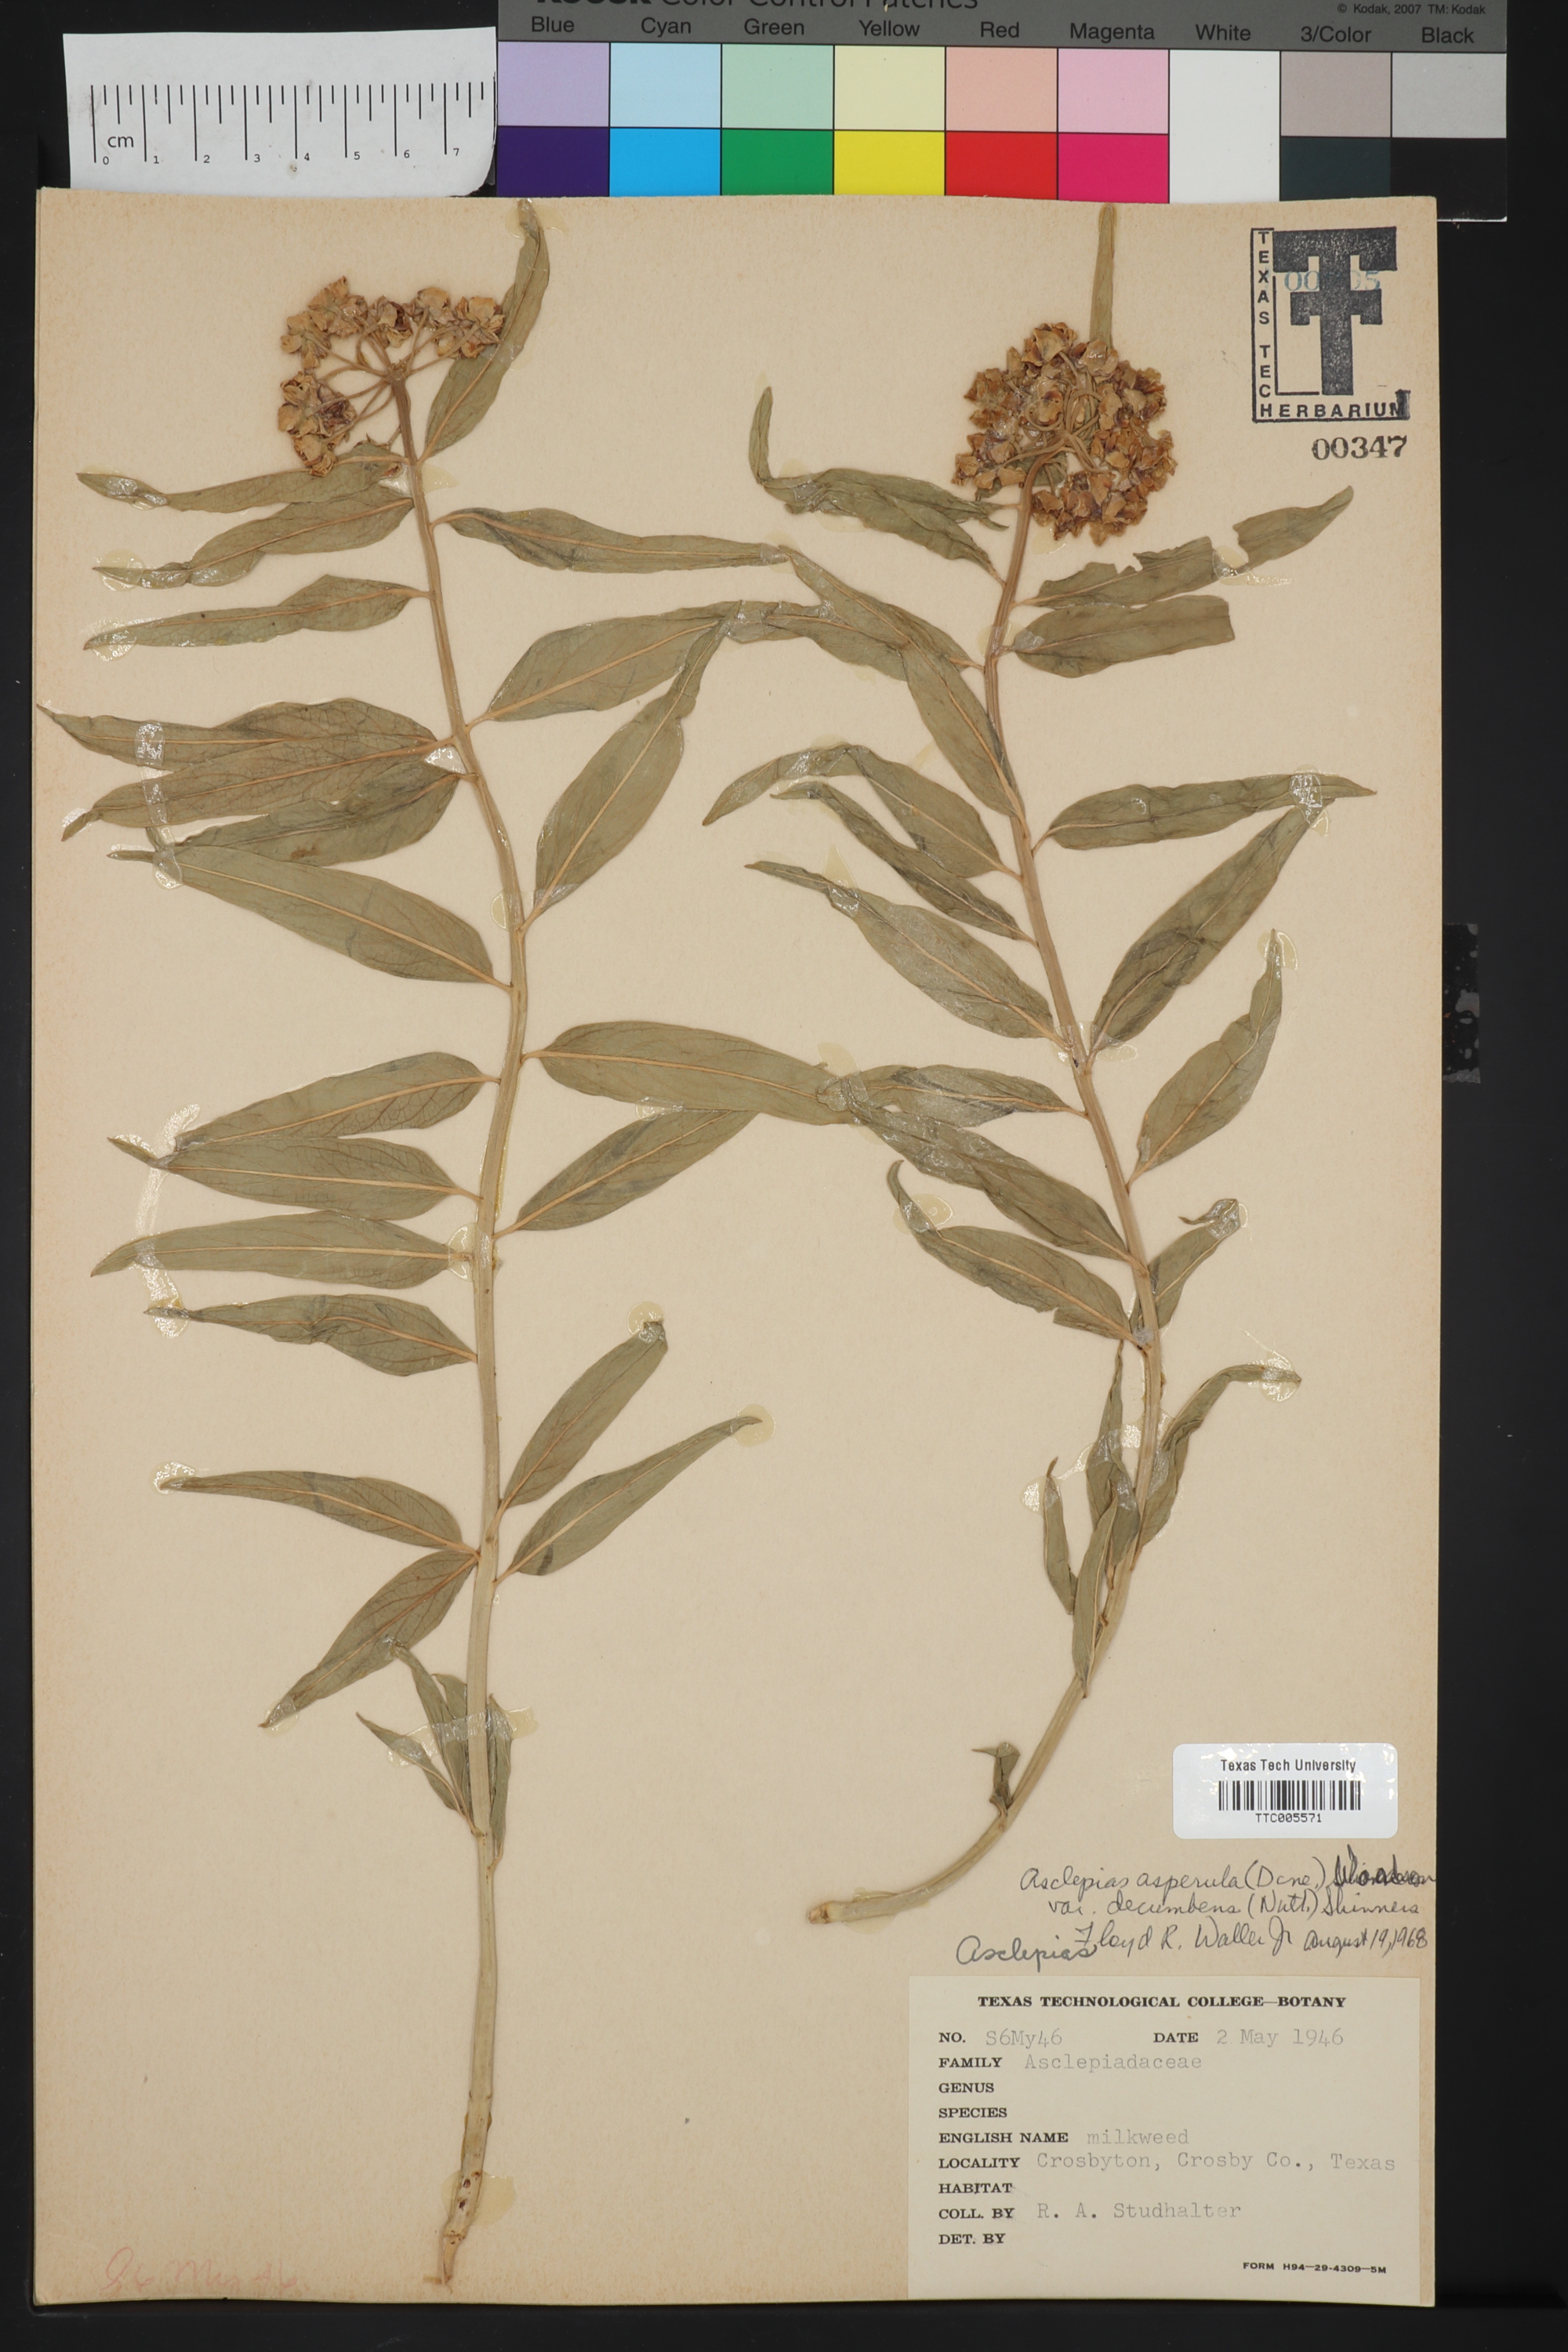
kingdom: Plantae
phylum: Tracheophyta
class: Magnoliopsida
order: Gentianales
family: Apocynaceae
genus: Asclepias
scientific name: Asclepias asperula
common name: Antelope horns
